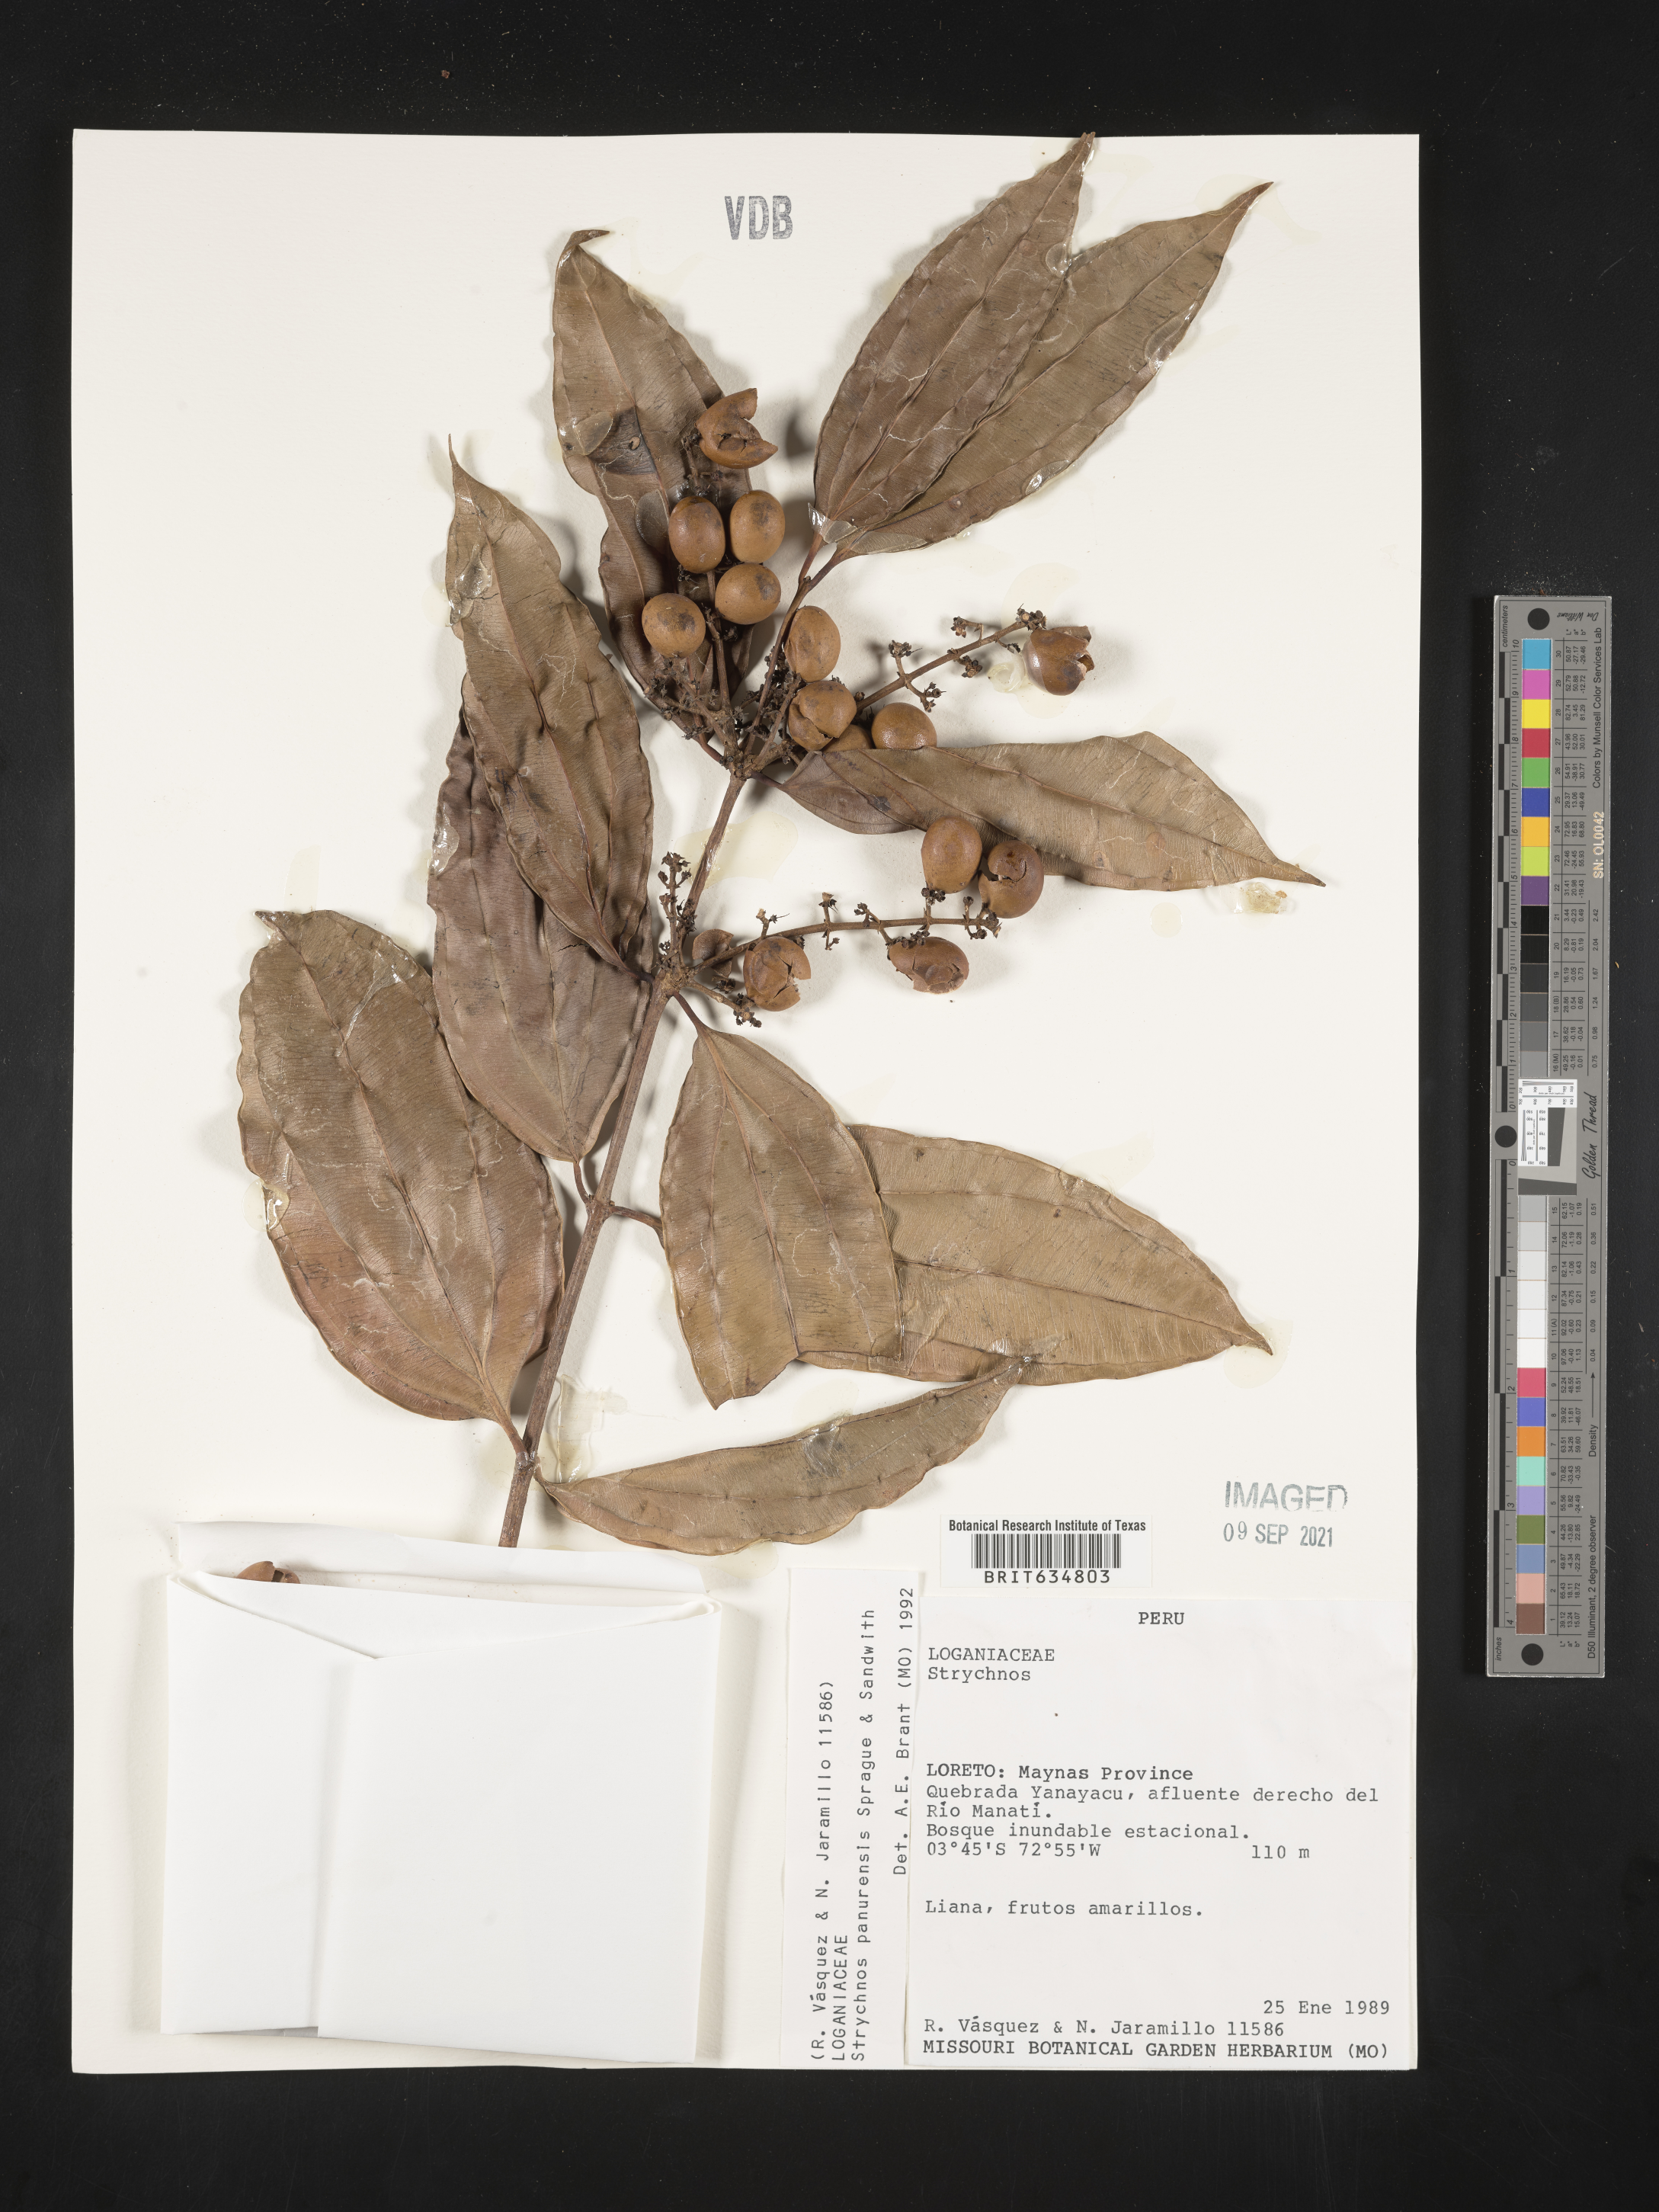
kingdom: Plantae
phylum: Tracheophyta
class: Magnoliopsida
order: Gentianales
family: Loganiaceae
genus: Strychnos
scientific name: Strychnos
